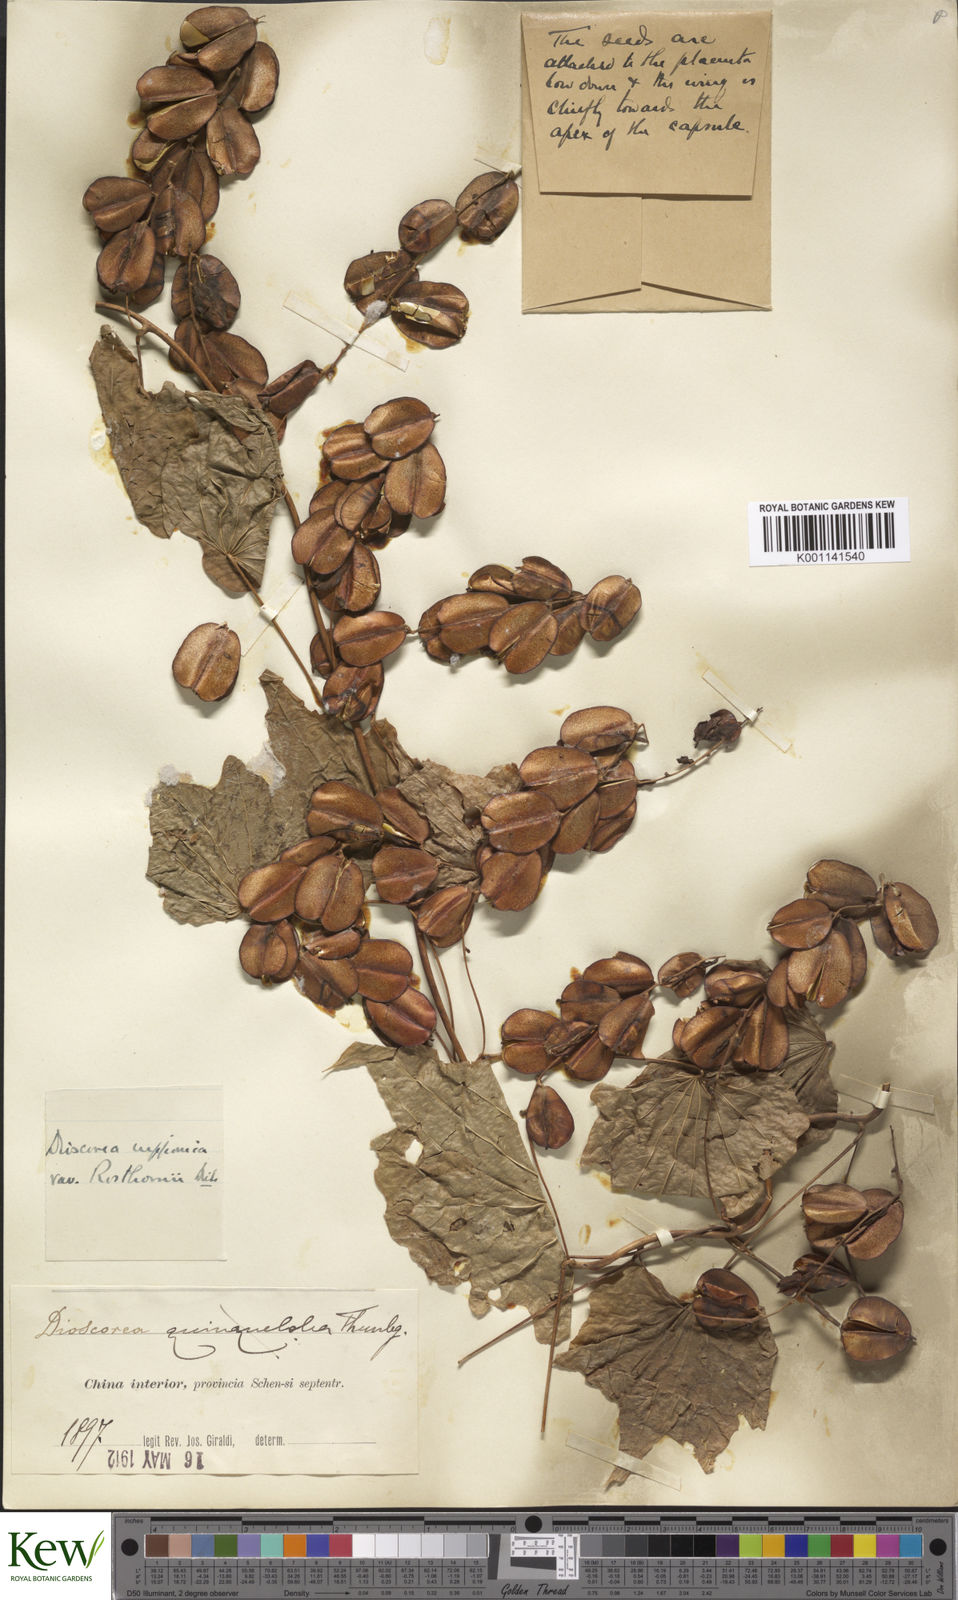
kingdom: Plantae
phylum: Tracheophyta
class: Liliopsida
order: Dioscoreales
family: Dioscoreaceae
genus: Dioscorea
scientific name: Dioscorea nipponica
